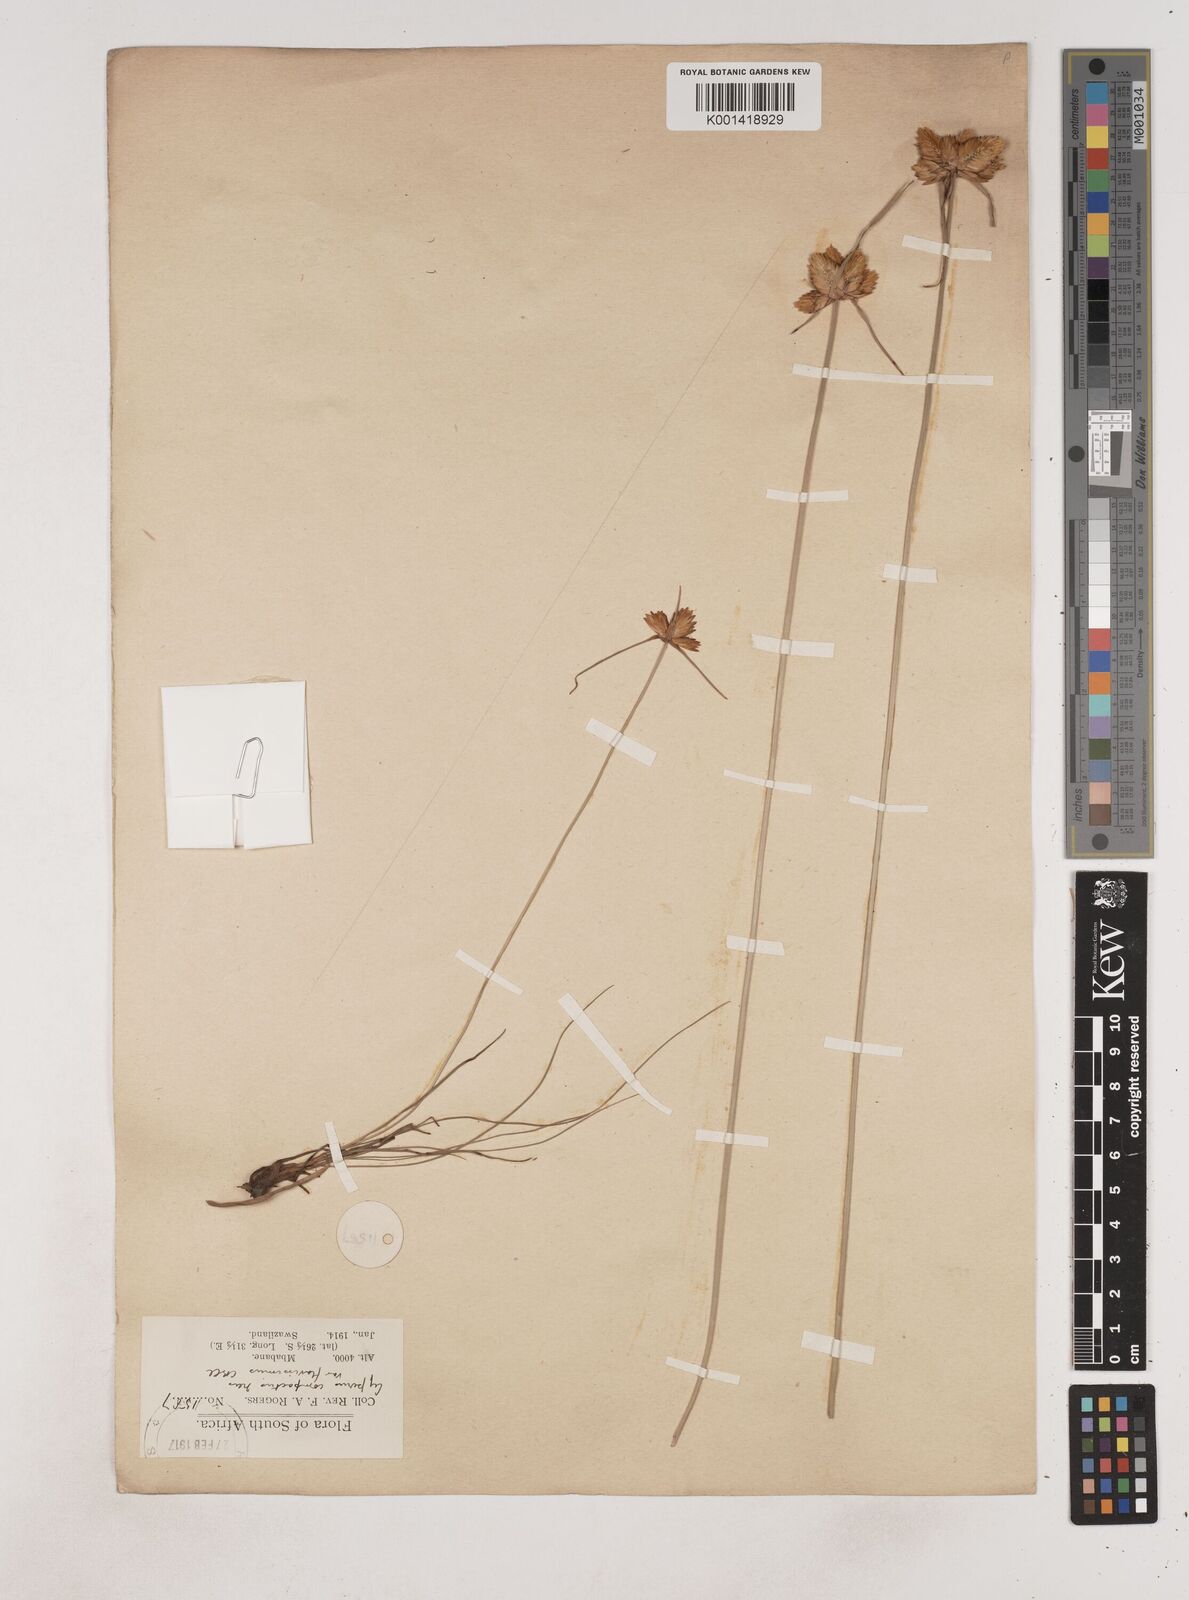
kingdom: Plantae
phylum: Tracheophyta
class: Liliopsida
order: Poales
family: Cyperaceae
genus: Cyperus
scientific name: Cyperus sphaerocephalus
